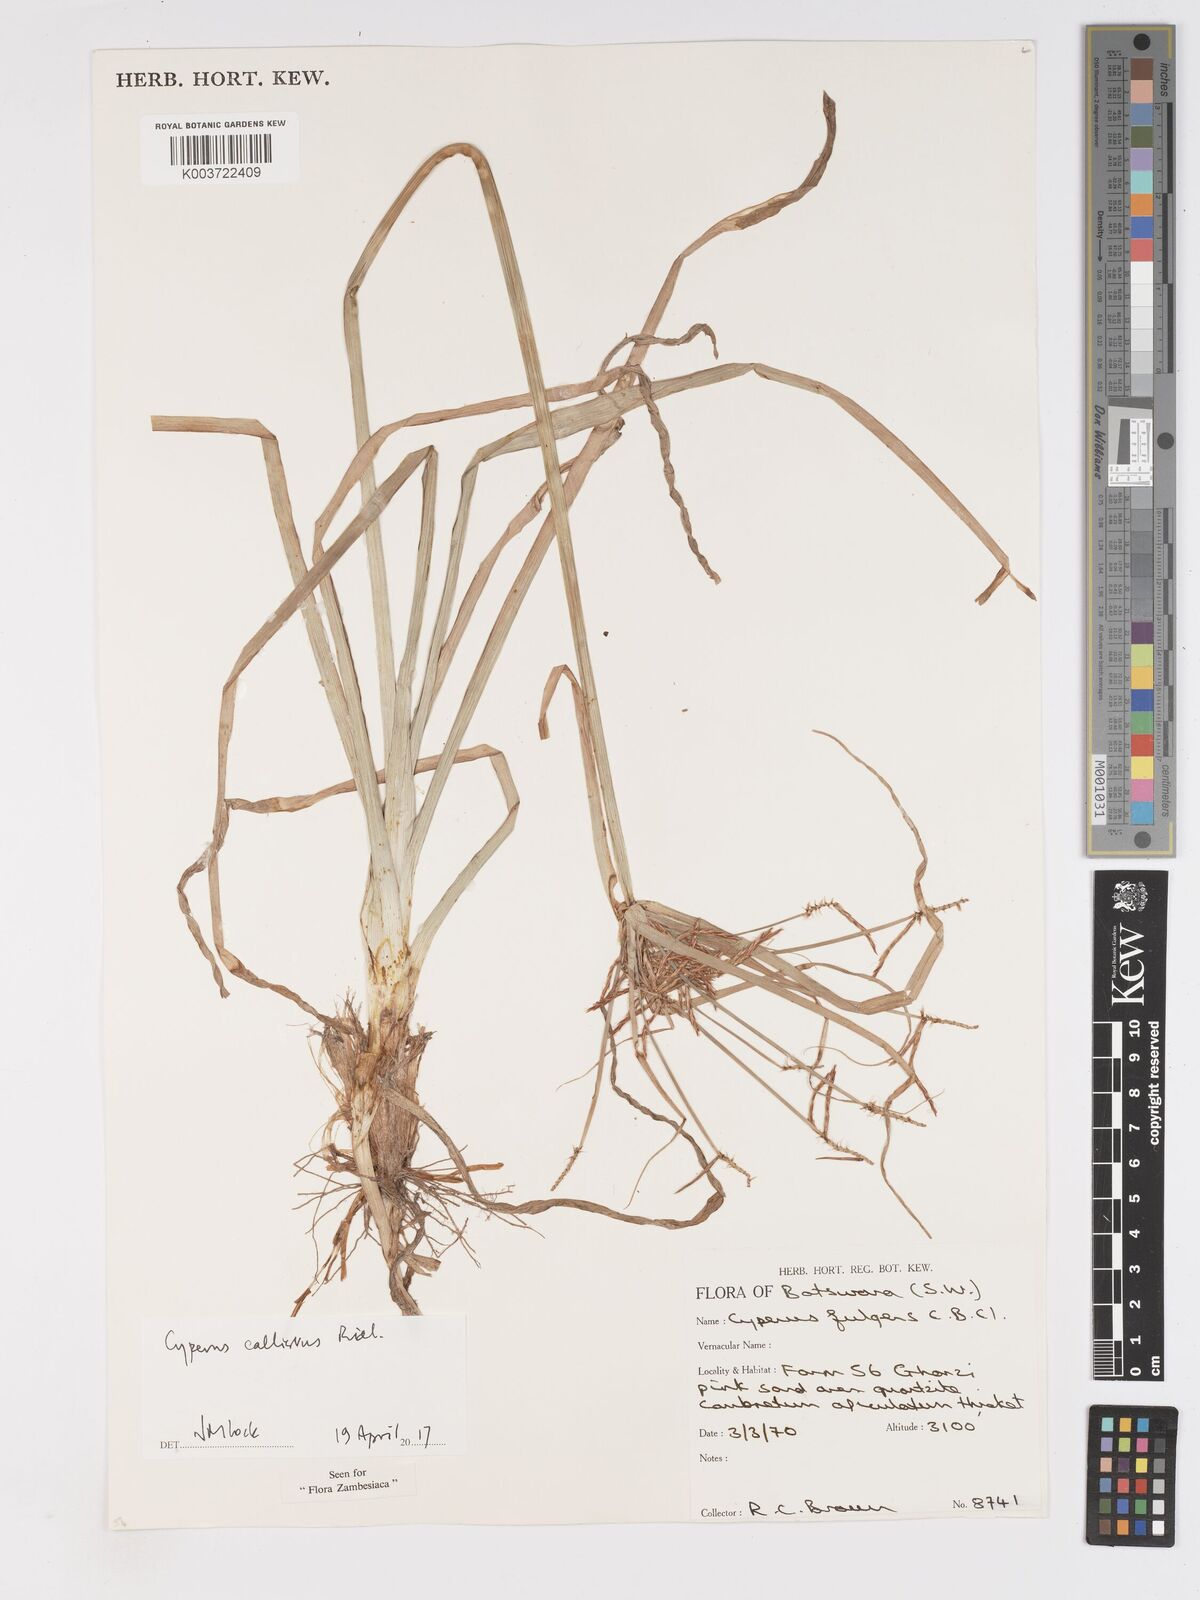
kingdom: Plantae
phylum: Tracheophyta
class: Liliopsida
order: Poales
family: Cyperaceae
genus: Cyperus
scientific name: Cyperus callistus
